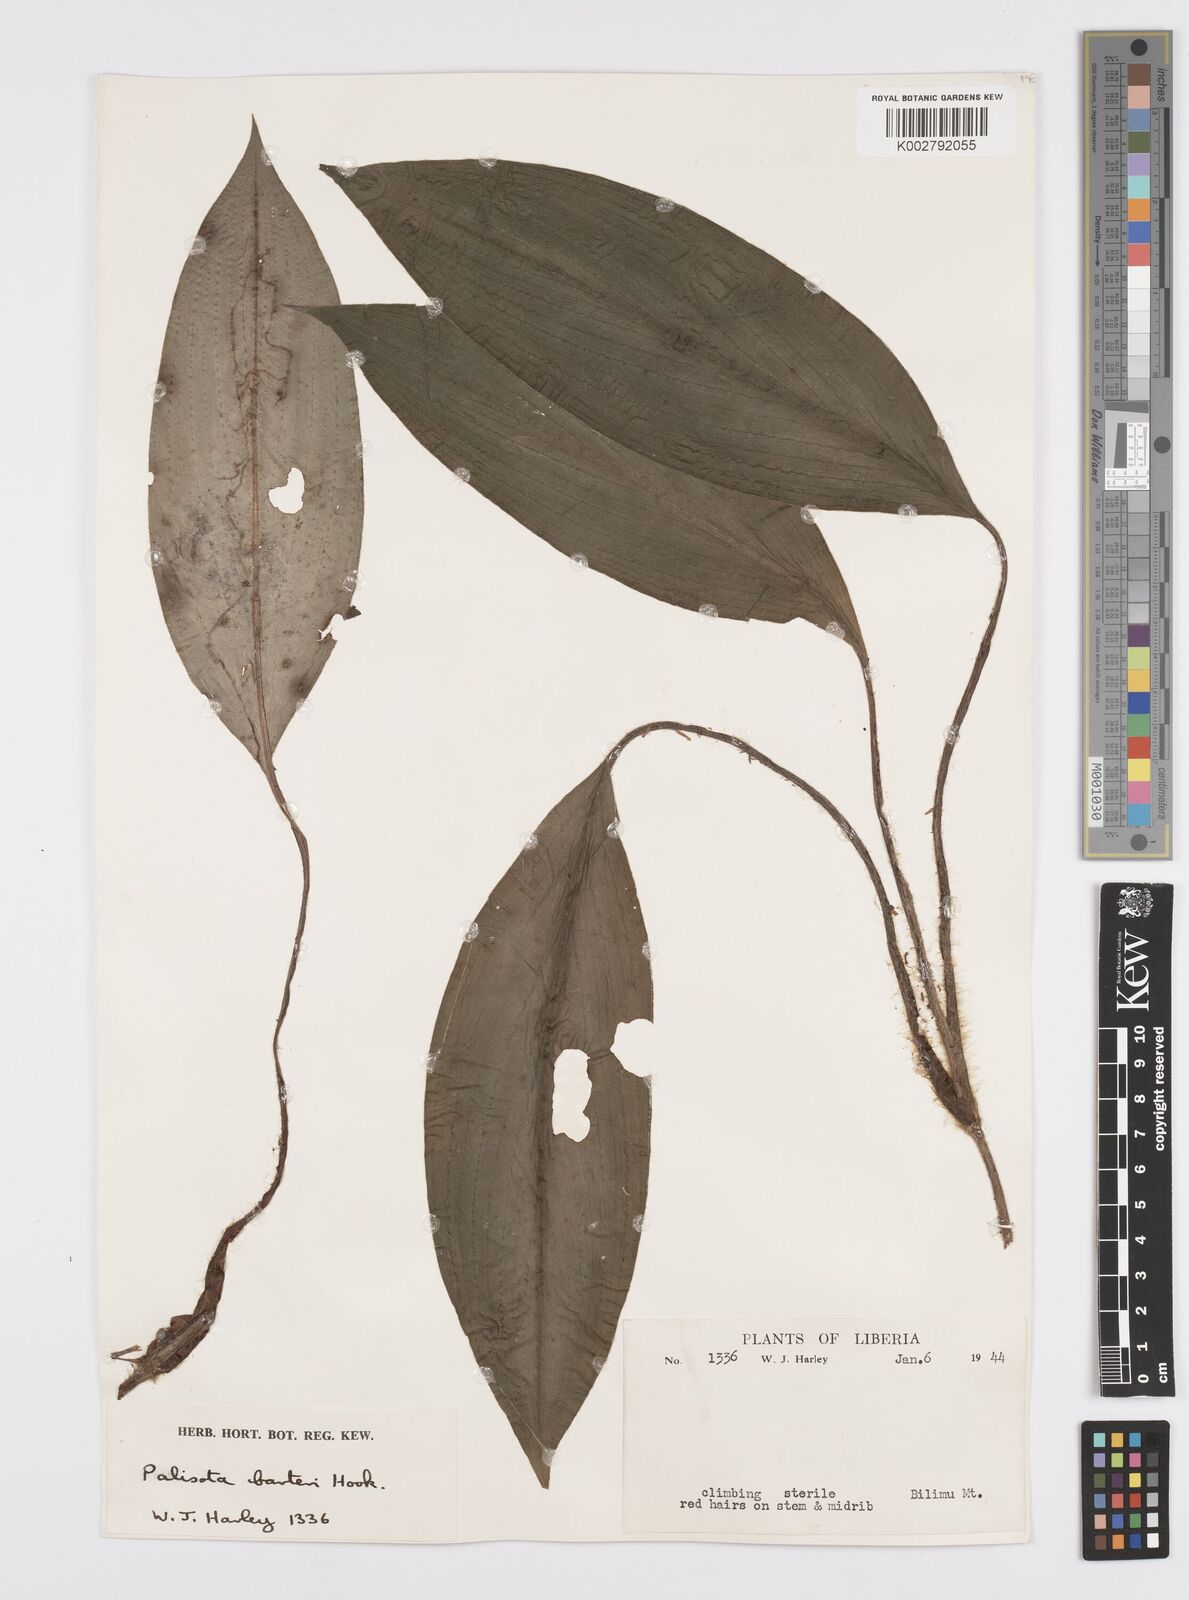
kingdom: Plantae
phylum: Tracheophyta
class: Liliopsida
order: Commelinales
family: Commelinaceae
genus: Palisota
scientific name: Palisota barteri
